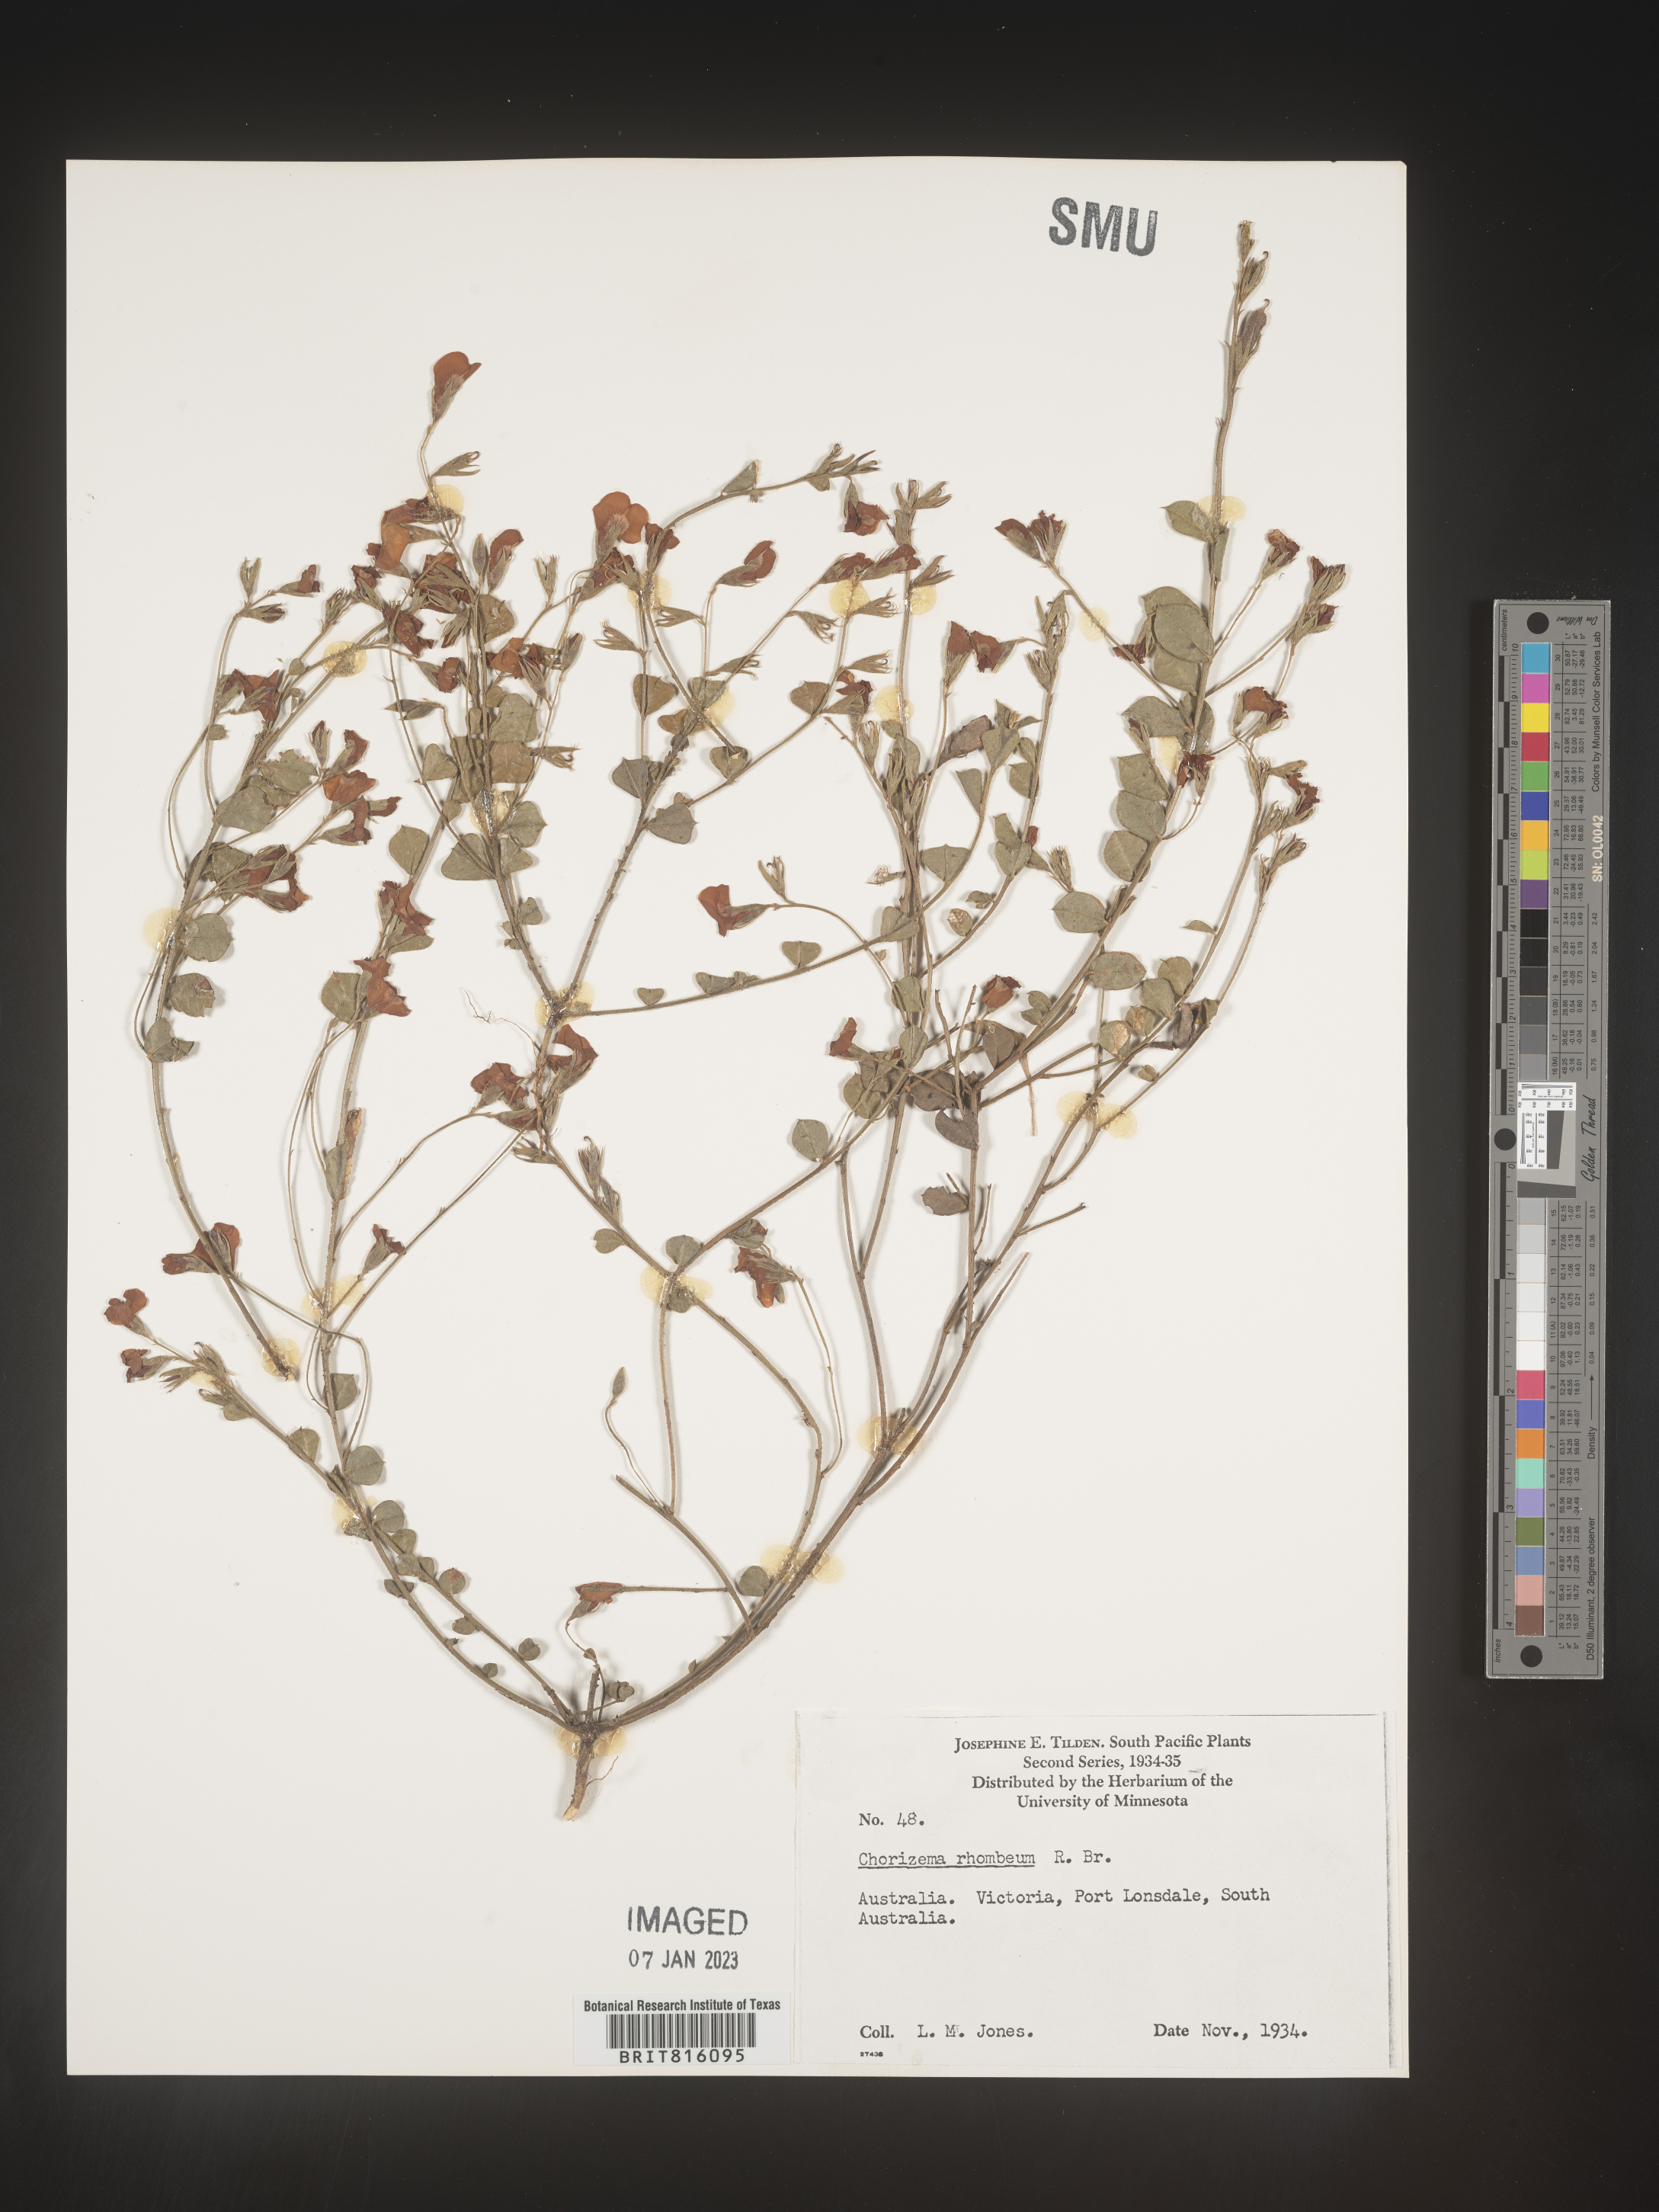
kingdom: Plantae
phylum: Tracheophyta
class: Magnoliopsida
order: Fabales
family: Fabaceae
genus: Chorizema
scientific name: Chorizema
